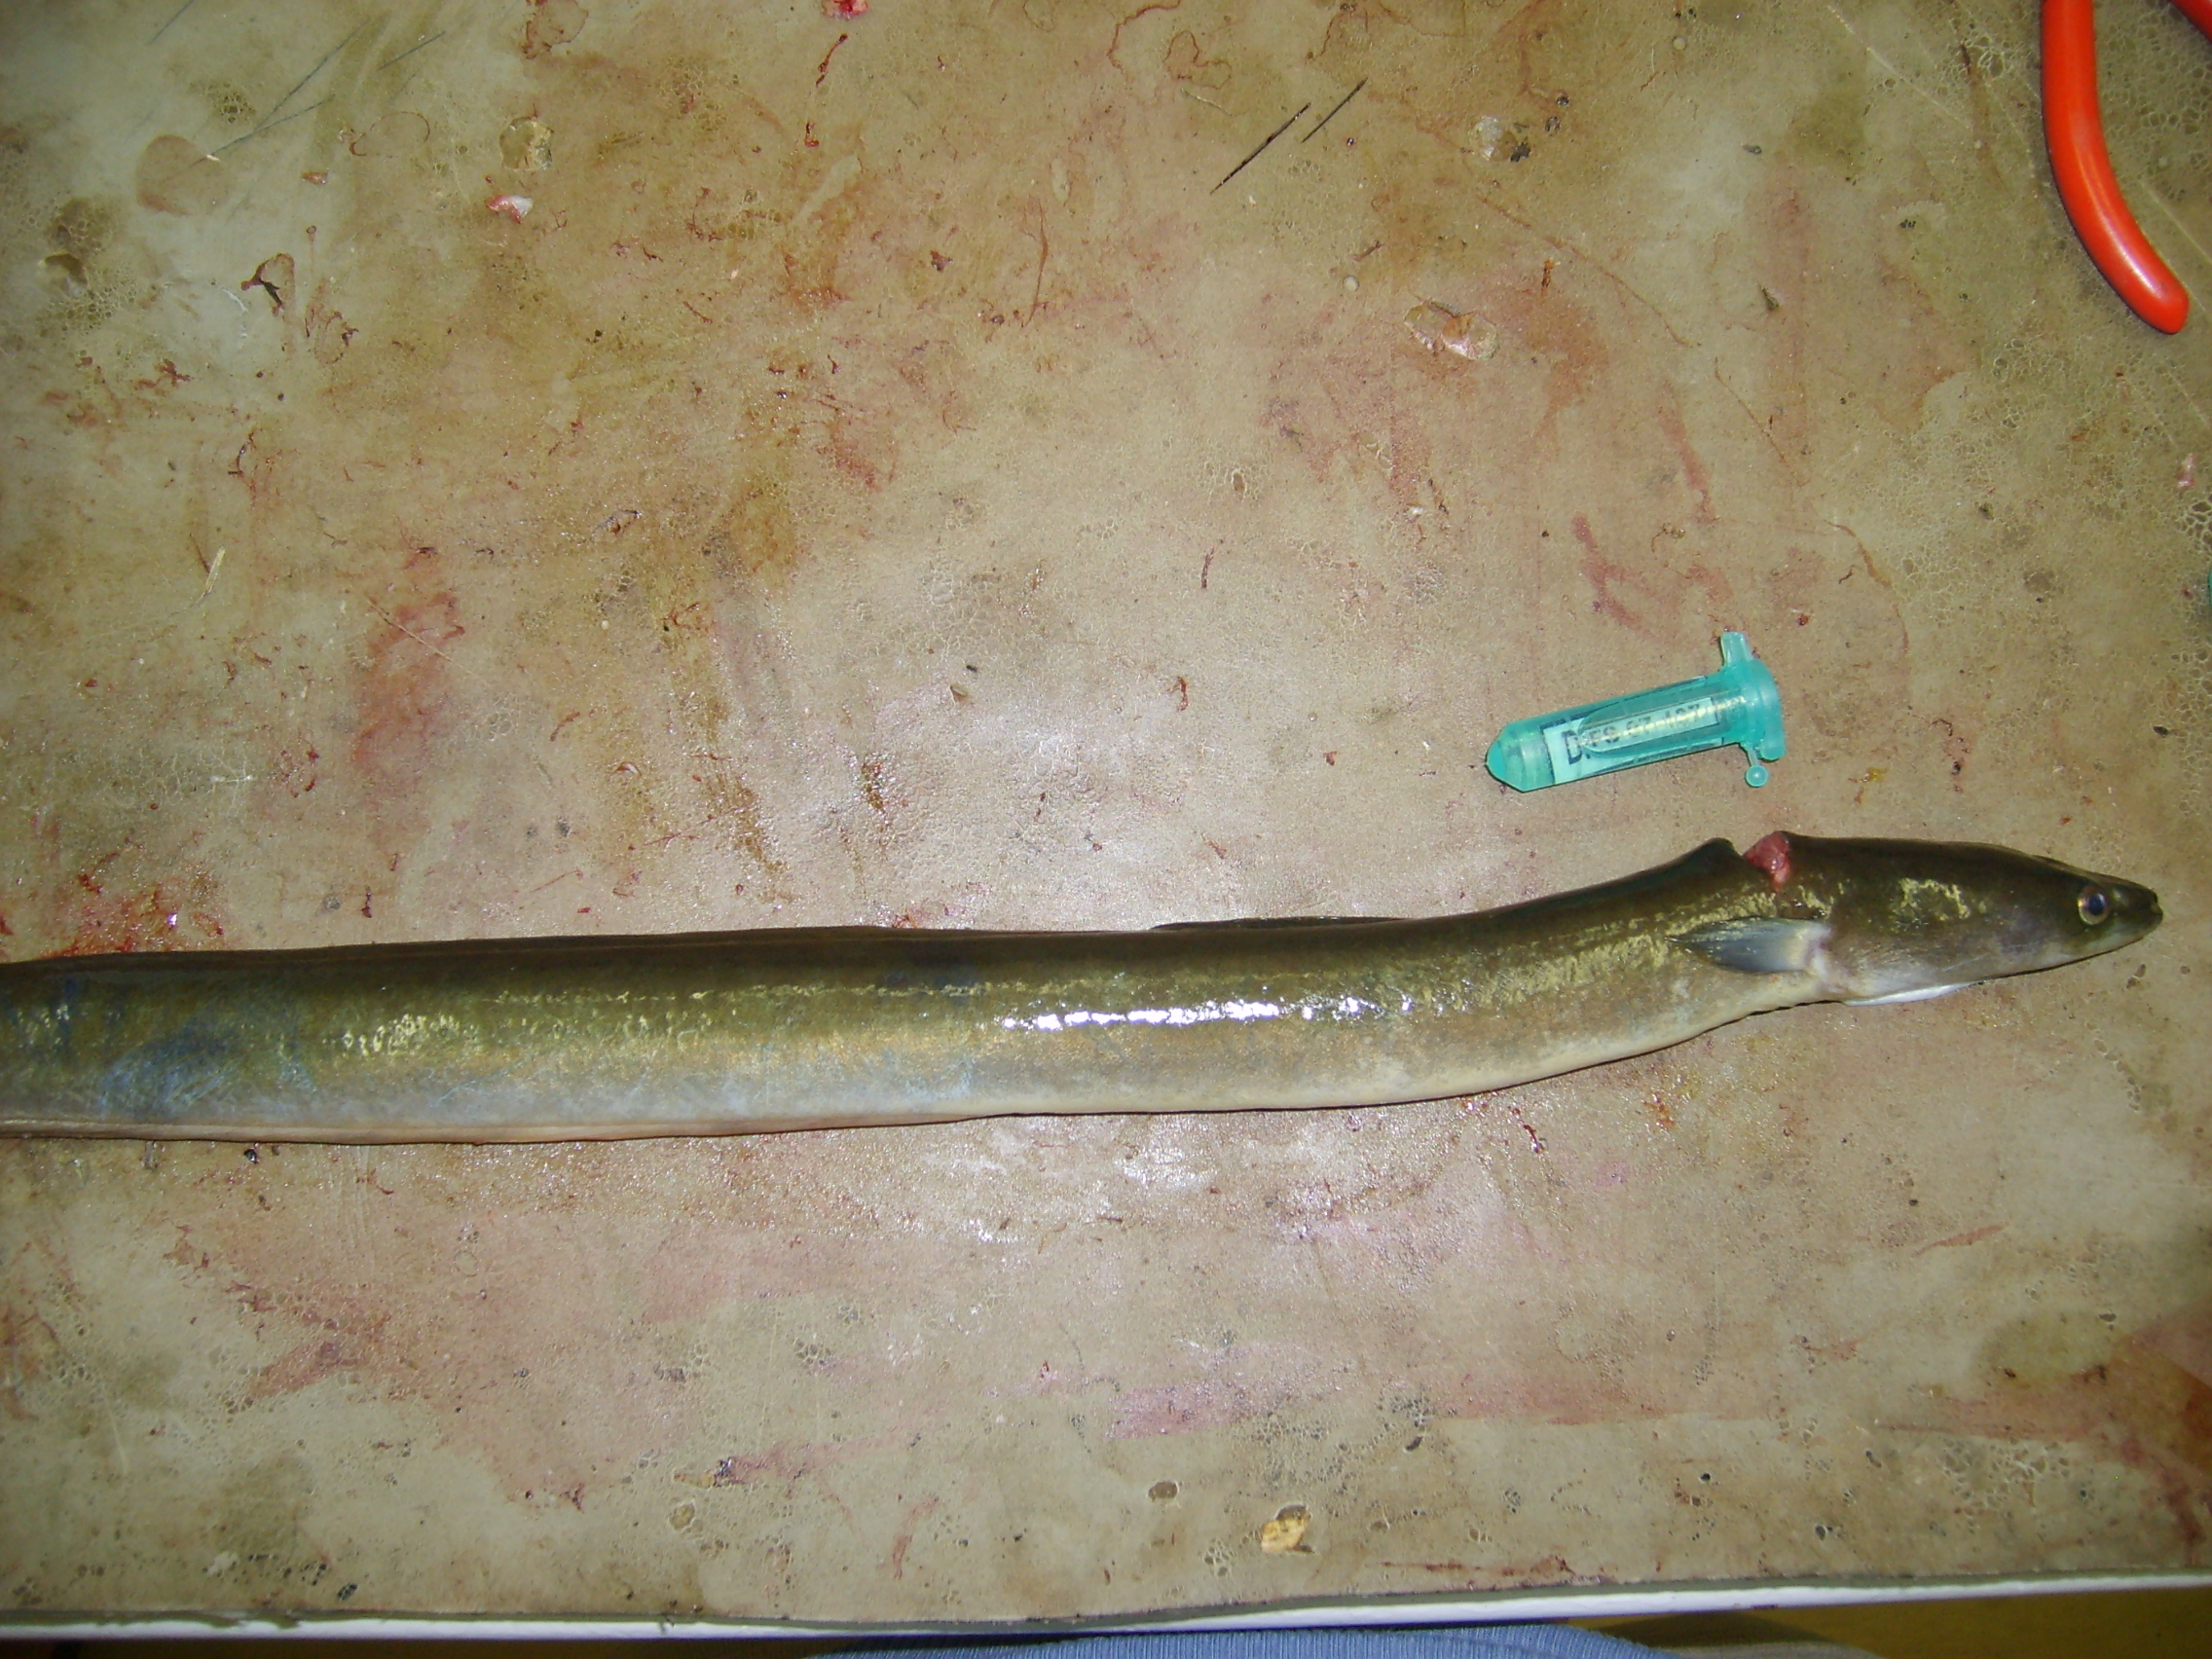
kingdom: Animalia
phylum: Chordata
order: Anguilliformes
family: Anguillidae
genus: Anguilla
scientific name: Anguilla mossambica
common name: African longfin eel
